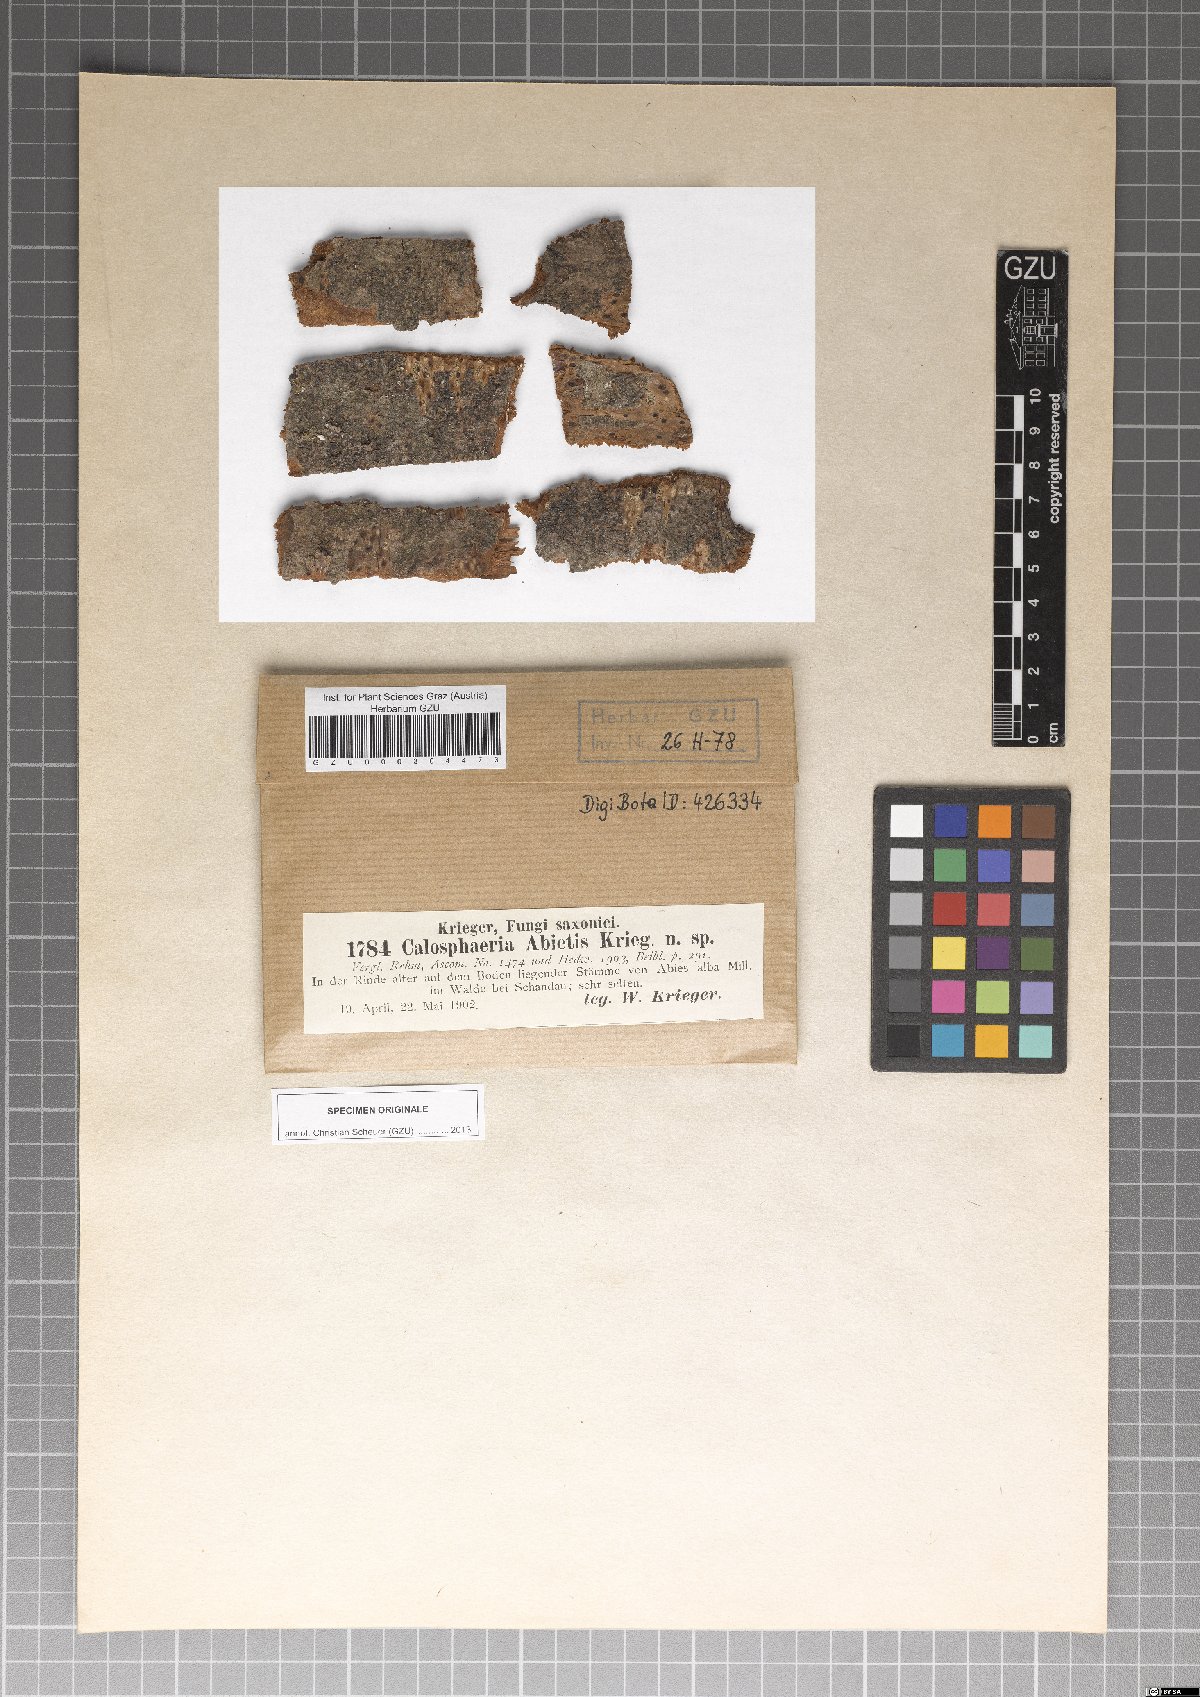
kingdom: Fungi
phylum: Ascomycota
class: Sordariomycetes
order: Calosphaeriales
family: Calosphaeriaceae
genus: Calosphaeria
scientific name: Calosphaeria abietis
